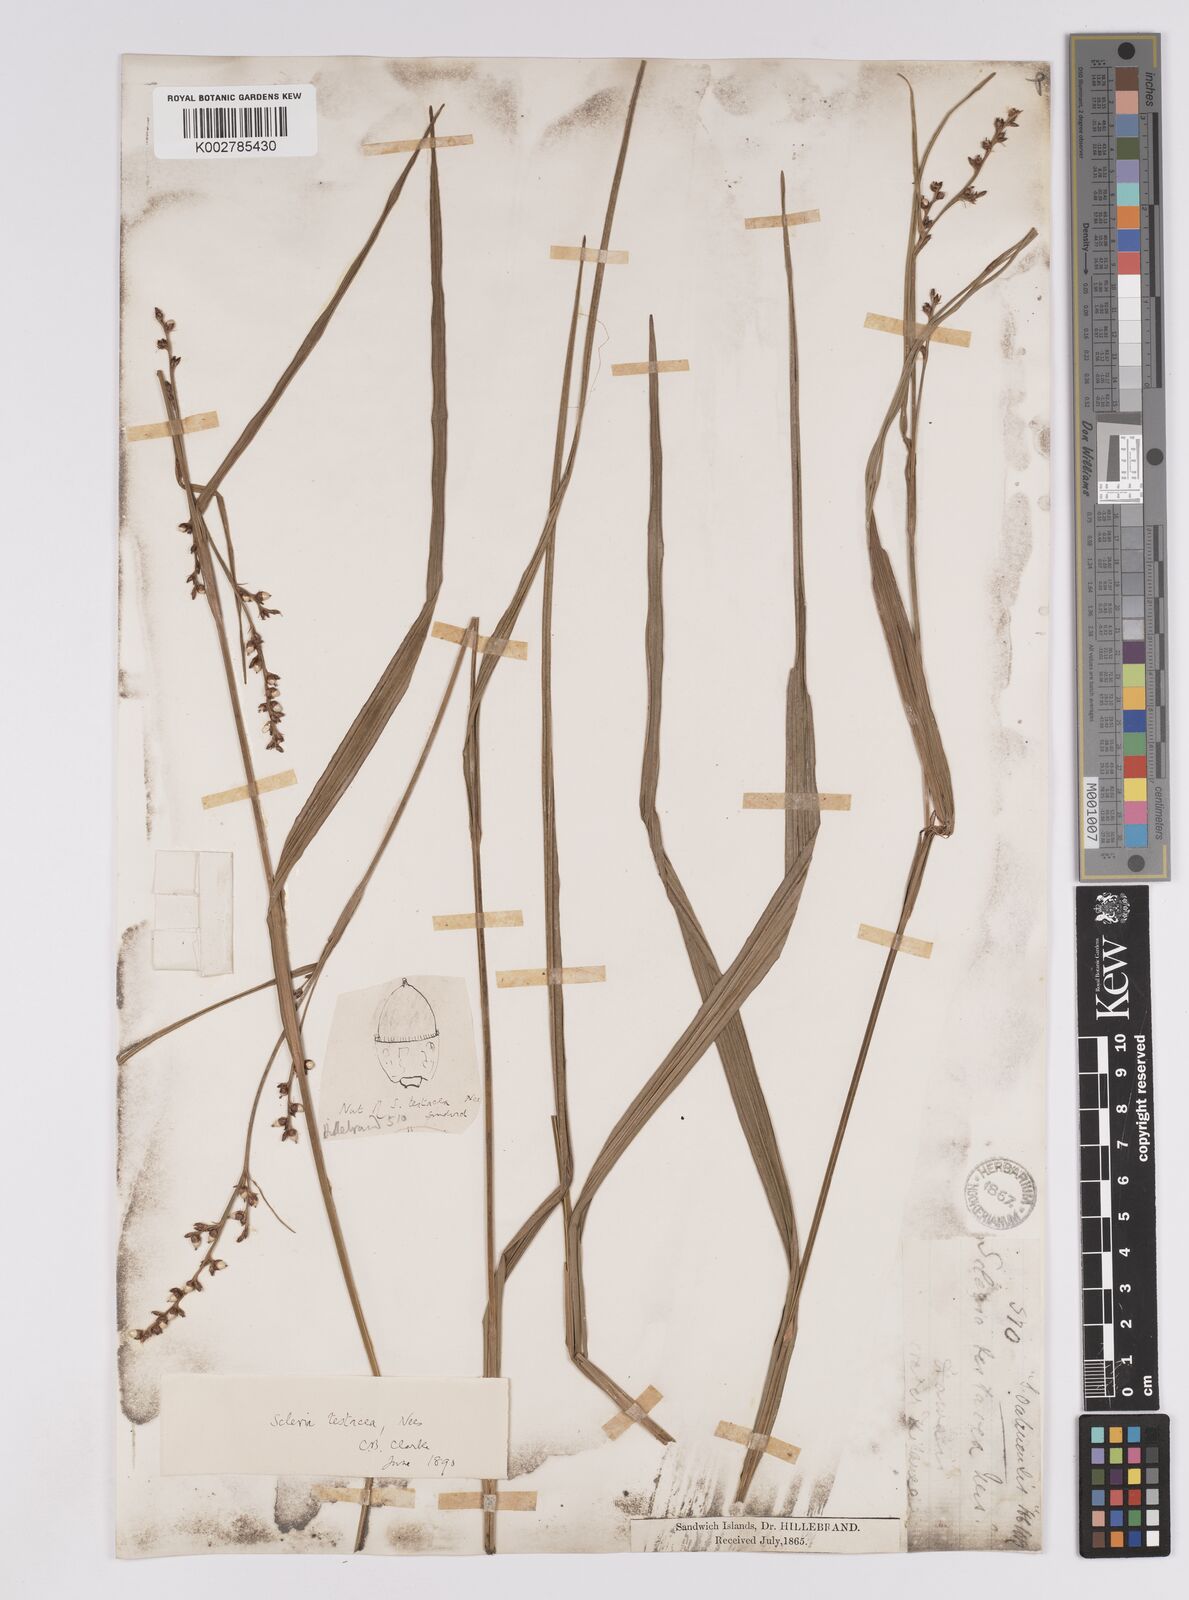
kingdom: Plantae
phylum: Tracheophyta
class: Liliopsida
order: Poales
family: Cyperaceae
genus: Scleria
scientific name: Scleria testacea
